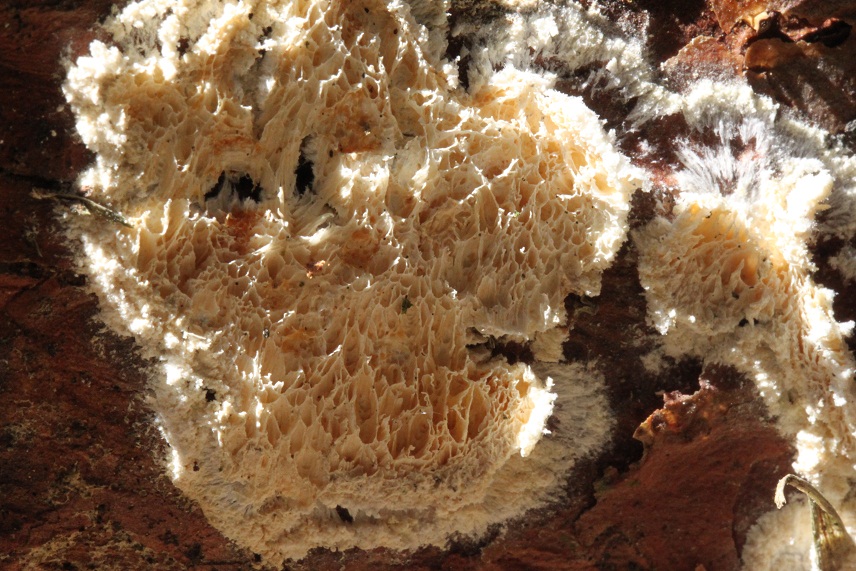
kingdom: Fungi
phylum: Basidiomycota
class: Agaricomycetes
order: Polyporales
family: Dacryobolaceae
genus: Oligoporus
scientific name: Oligoporus rennyi
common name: pudret kødporesvamp
